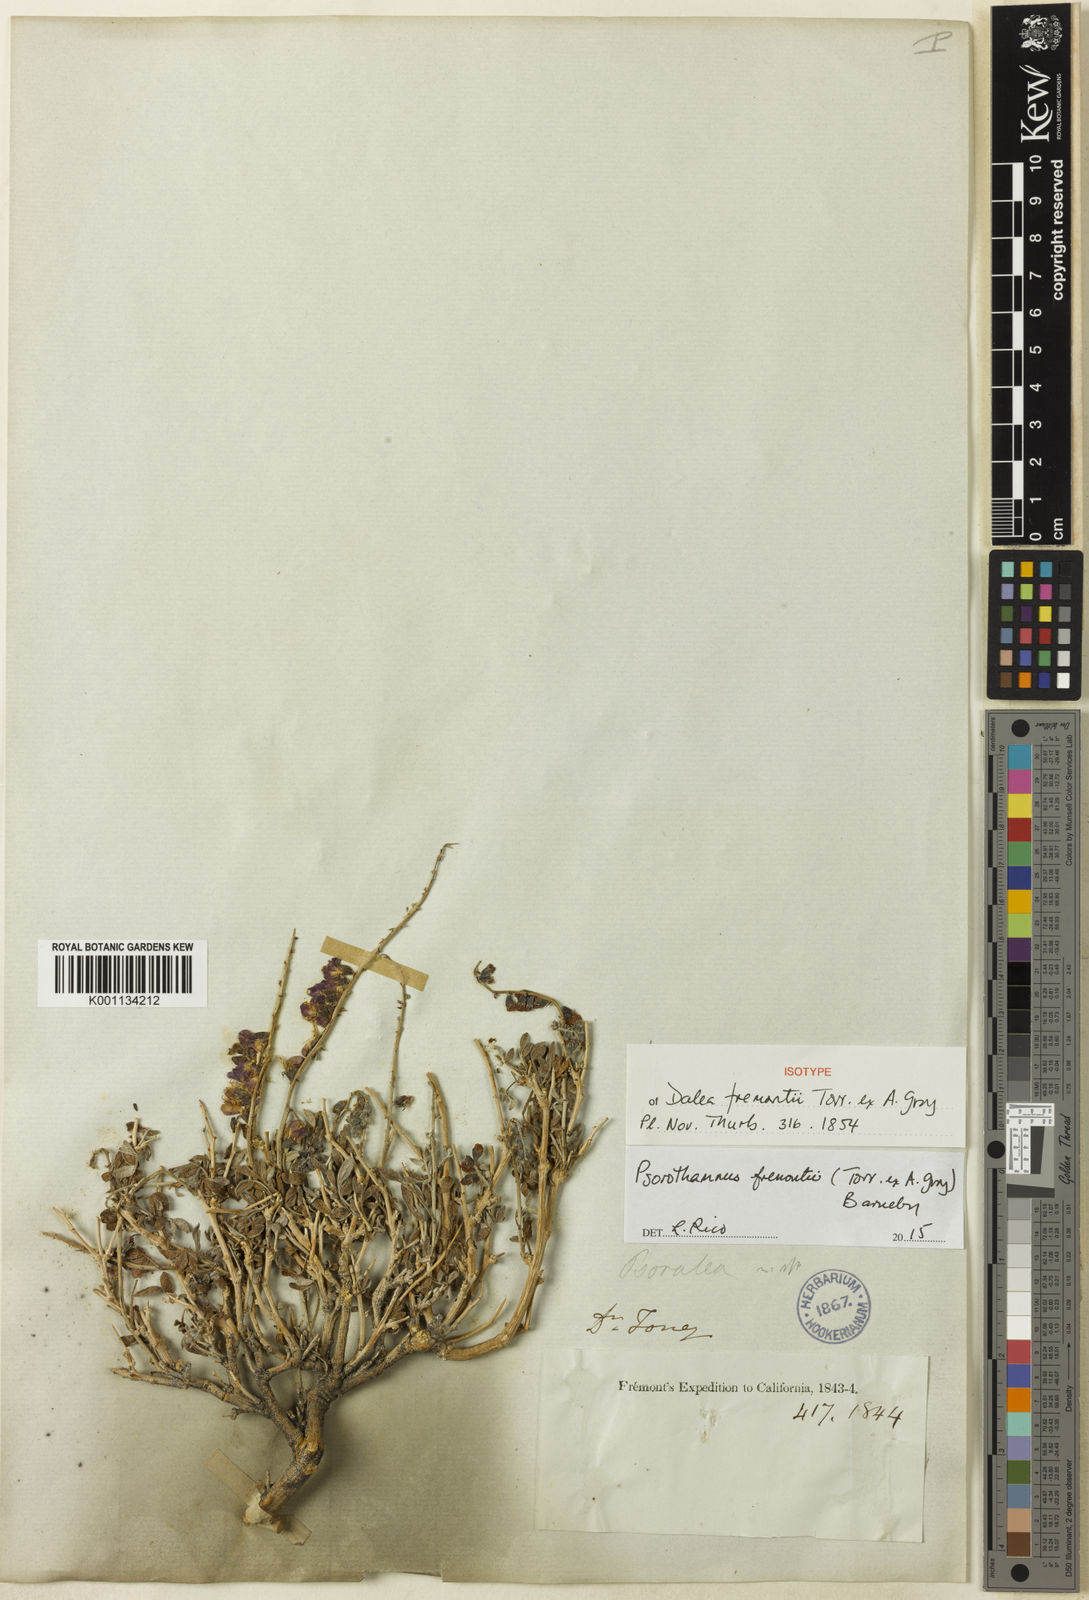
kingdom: Plantae
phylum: Tracheophyta
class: Magnoliopsida
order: Fabales
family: Fabaceae
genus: Psorothamnus
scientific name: Psorothamnus fremontii
